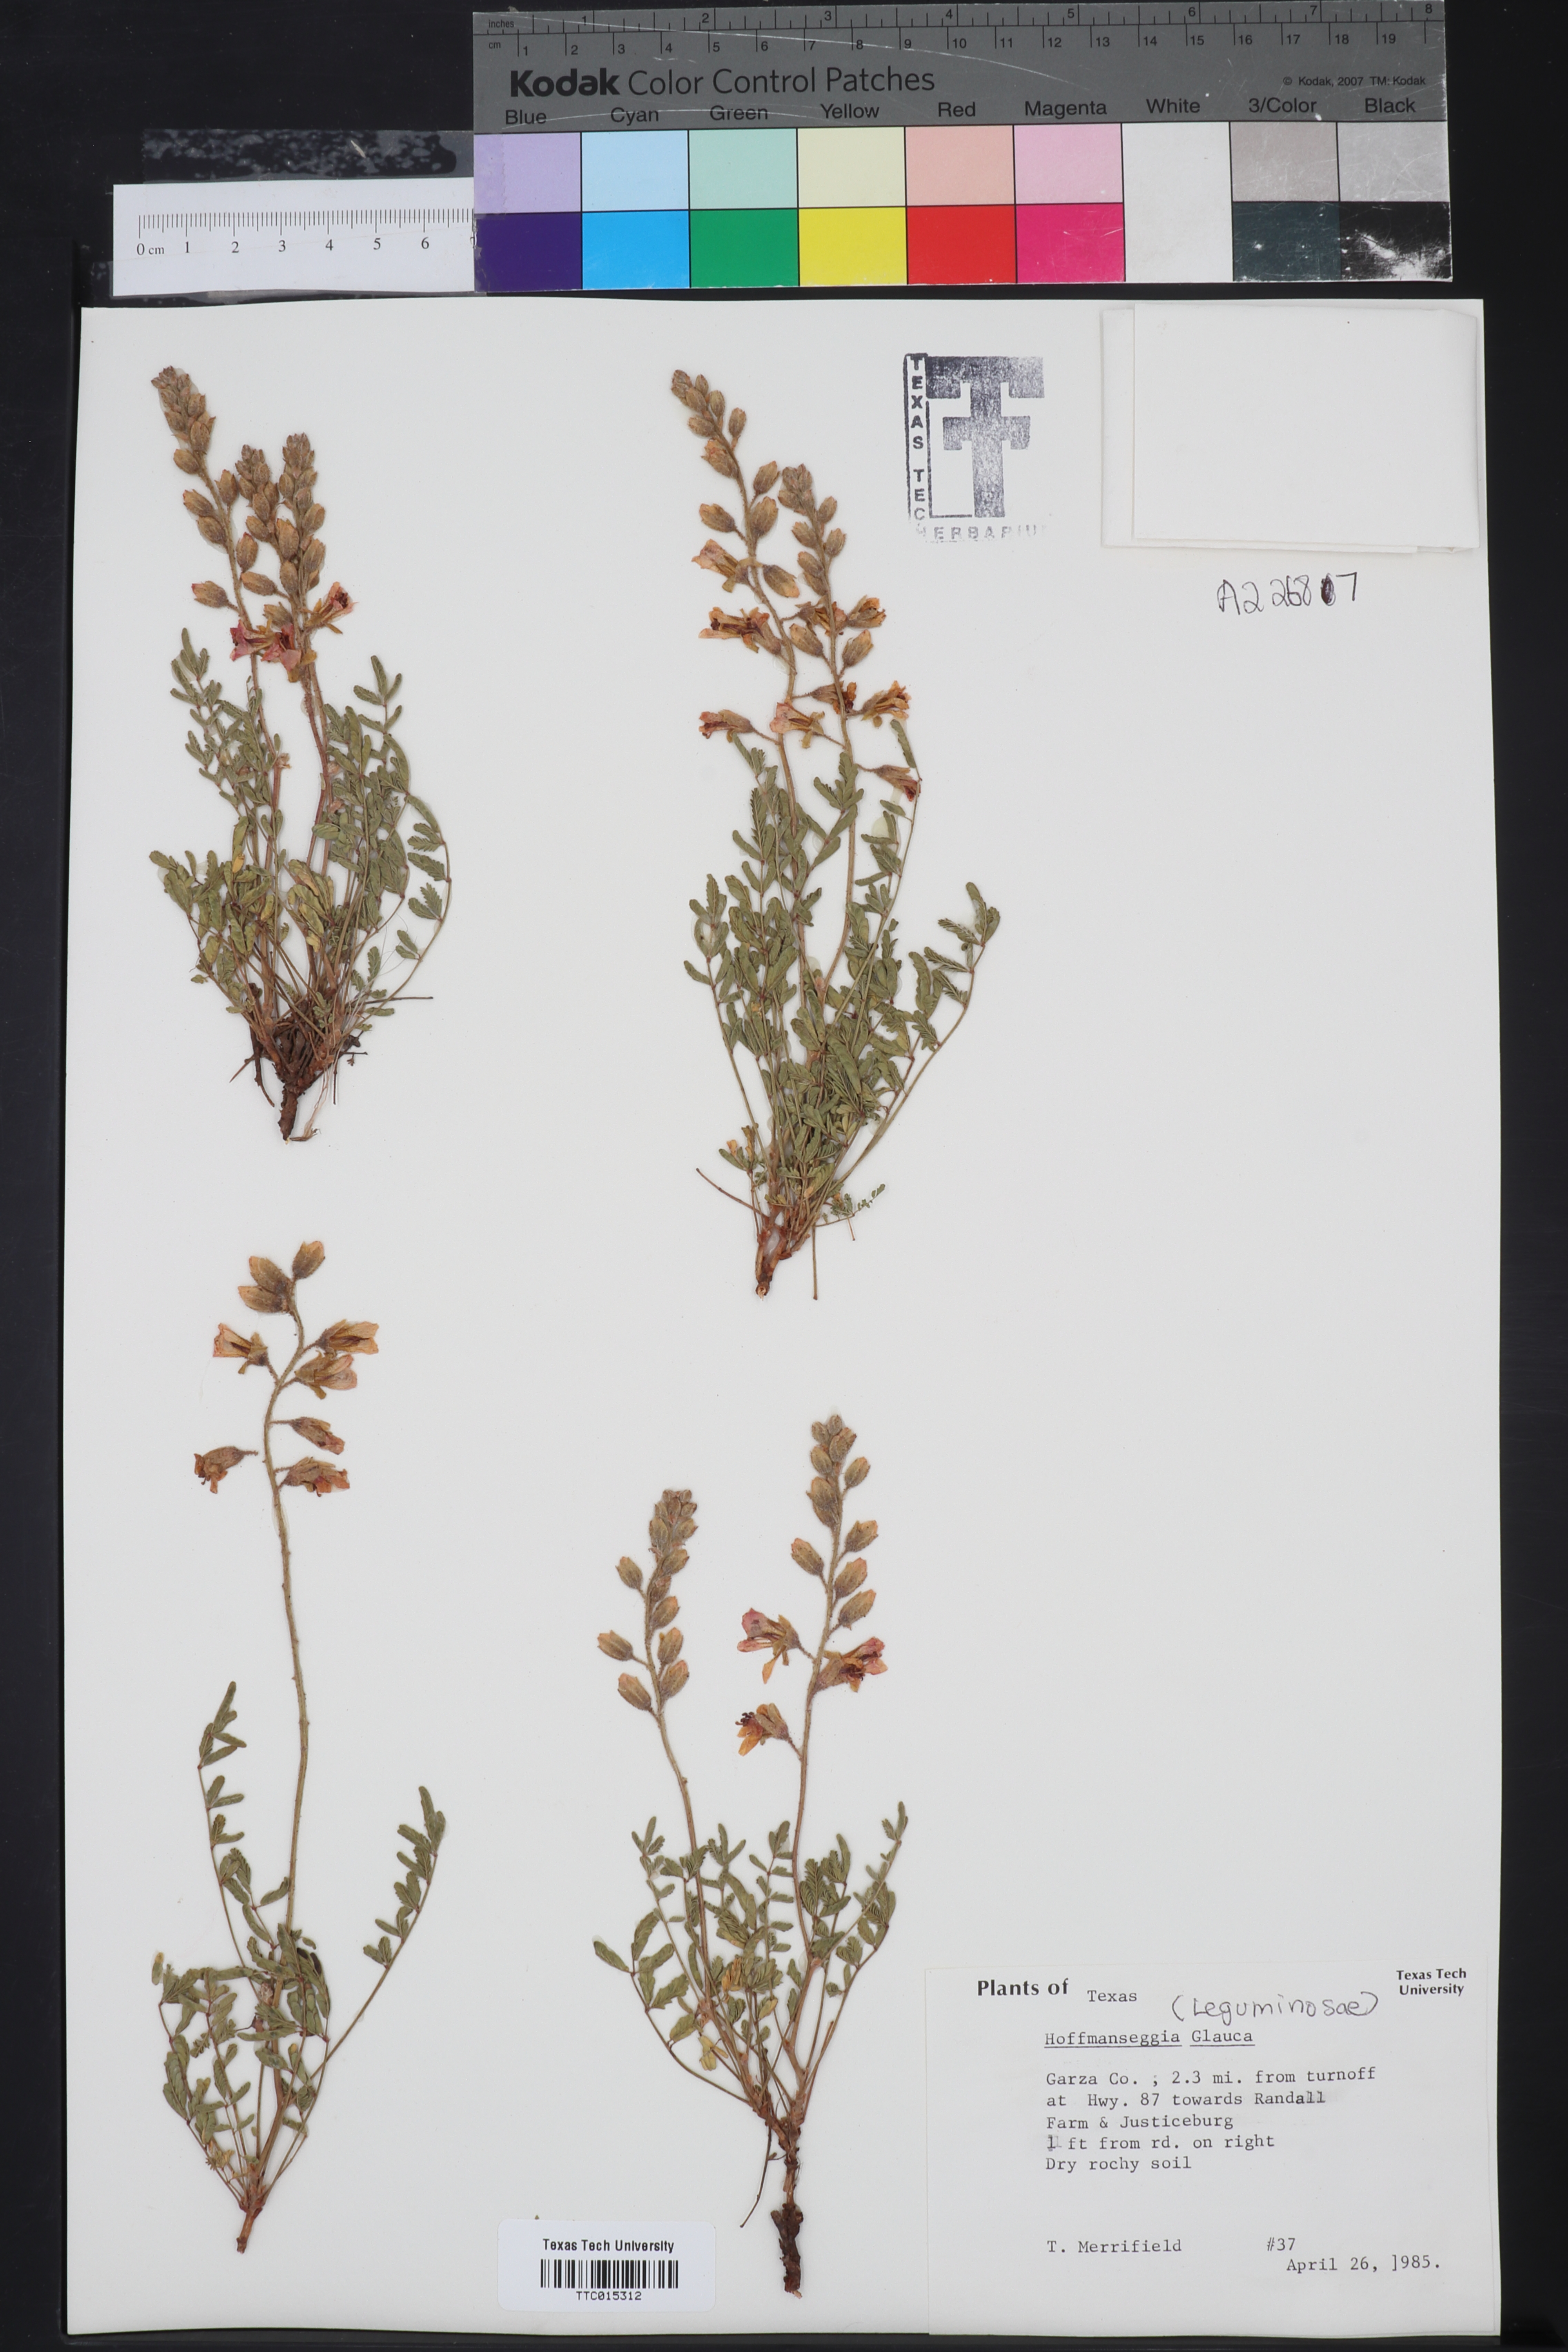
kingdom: Plantae
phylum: Tracheophyta
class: Magnoliopsida
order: Fabales
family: Fabaceae
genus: Hoffmannseggia
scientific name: Hoffmannseggia glauca
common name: Pignut
